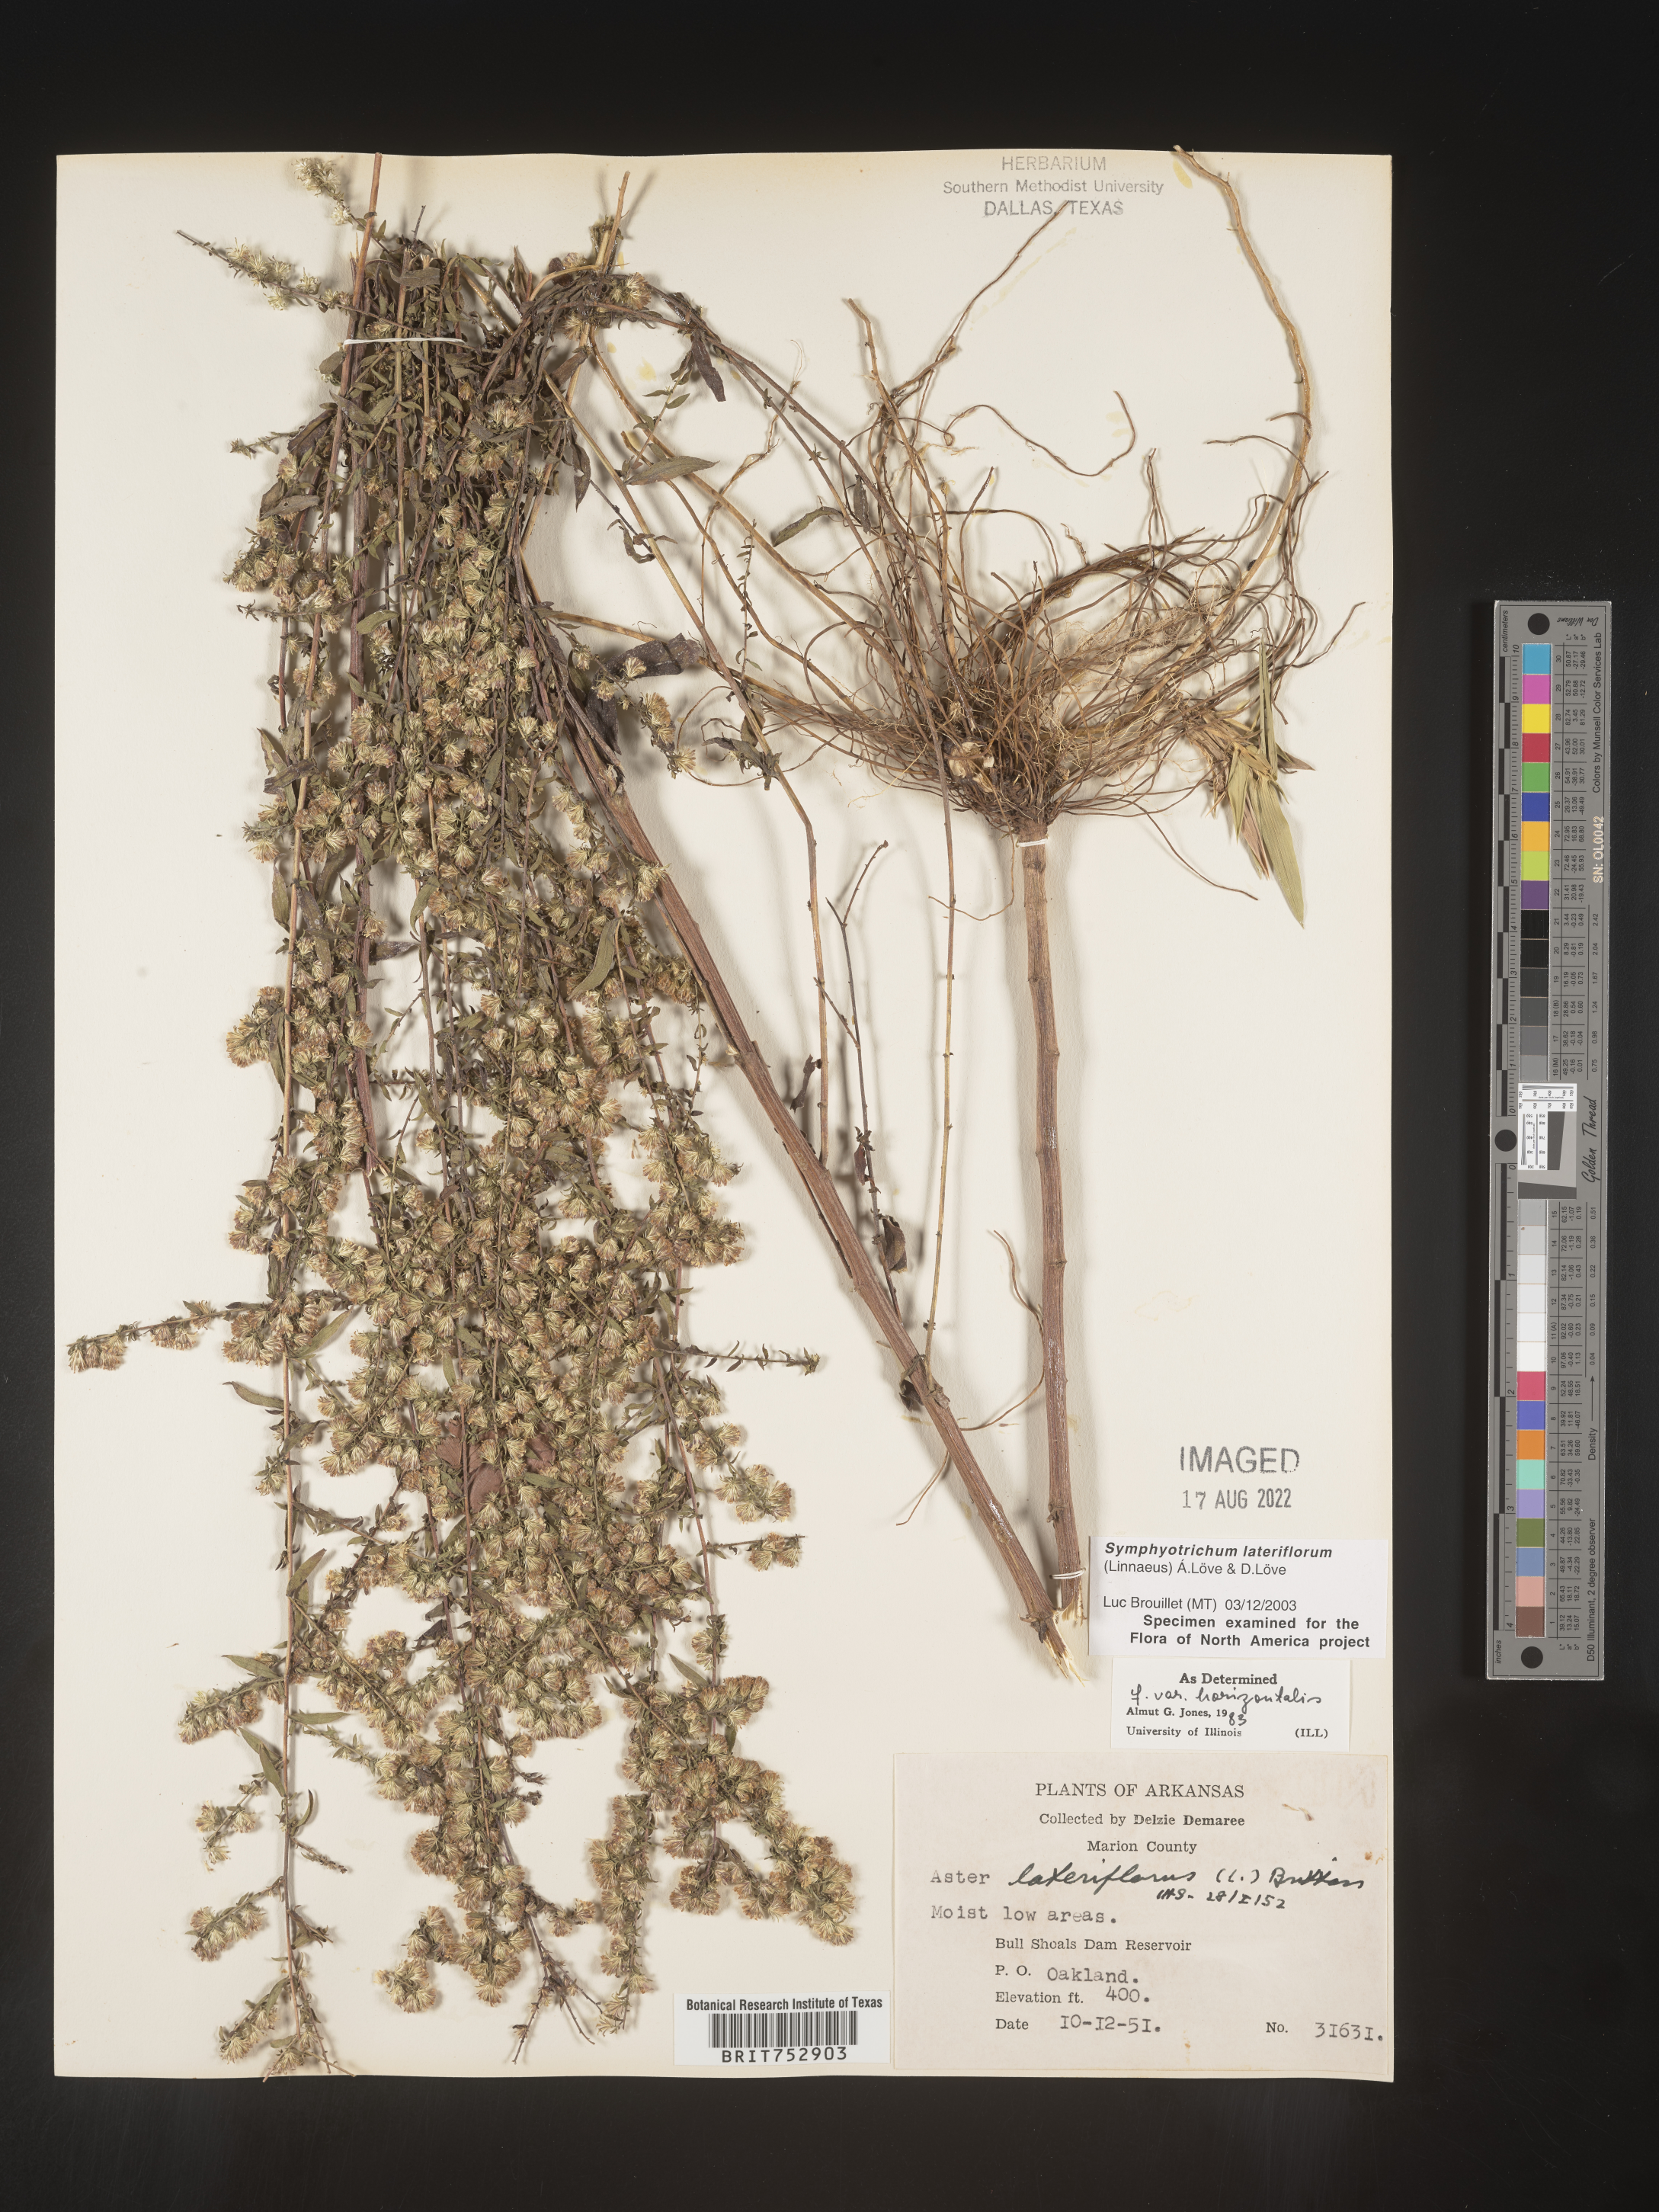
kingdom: Plantae
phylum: Tracheophyta
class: Magnoliopsida
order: Asterales
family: Asteraceae
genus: Symphyotrichum
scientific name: Symphyotrichum lateriflorum
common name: Calico aster
